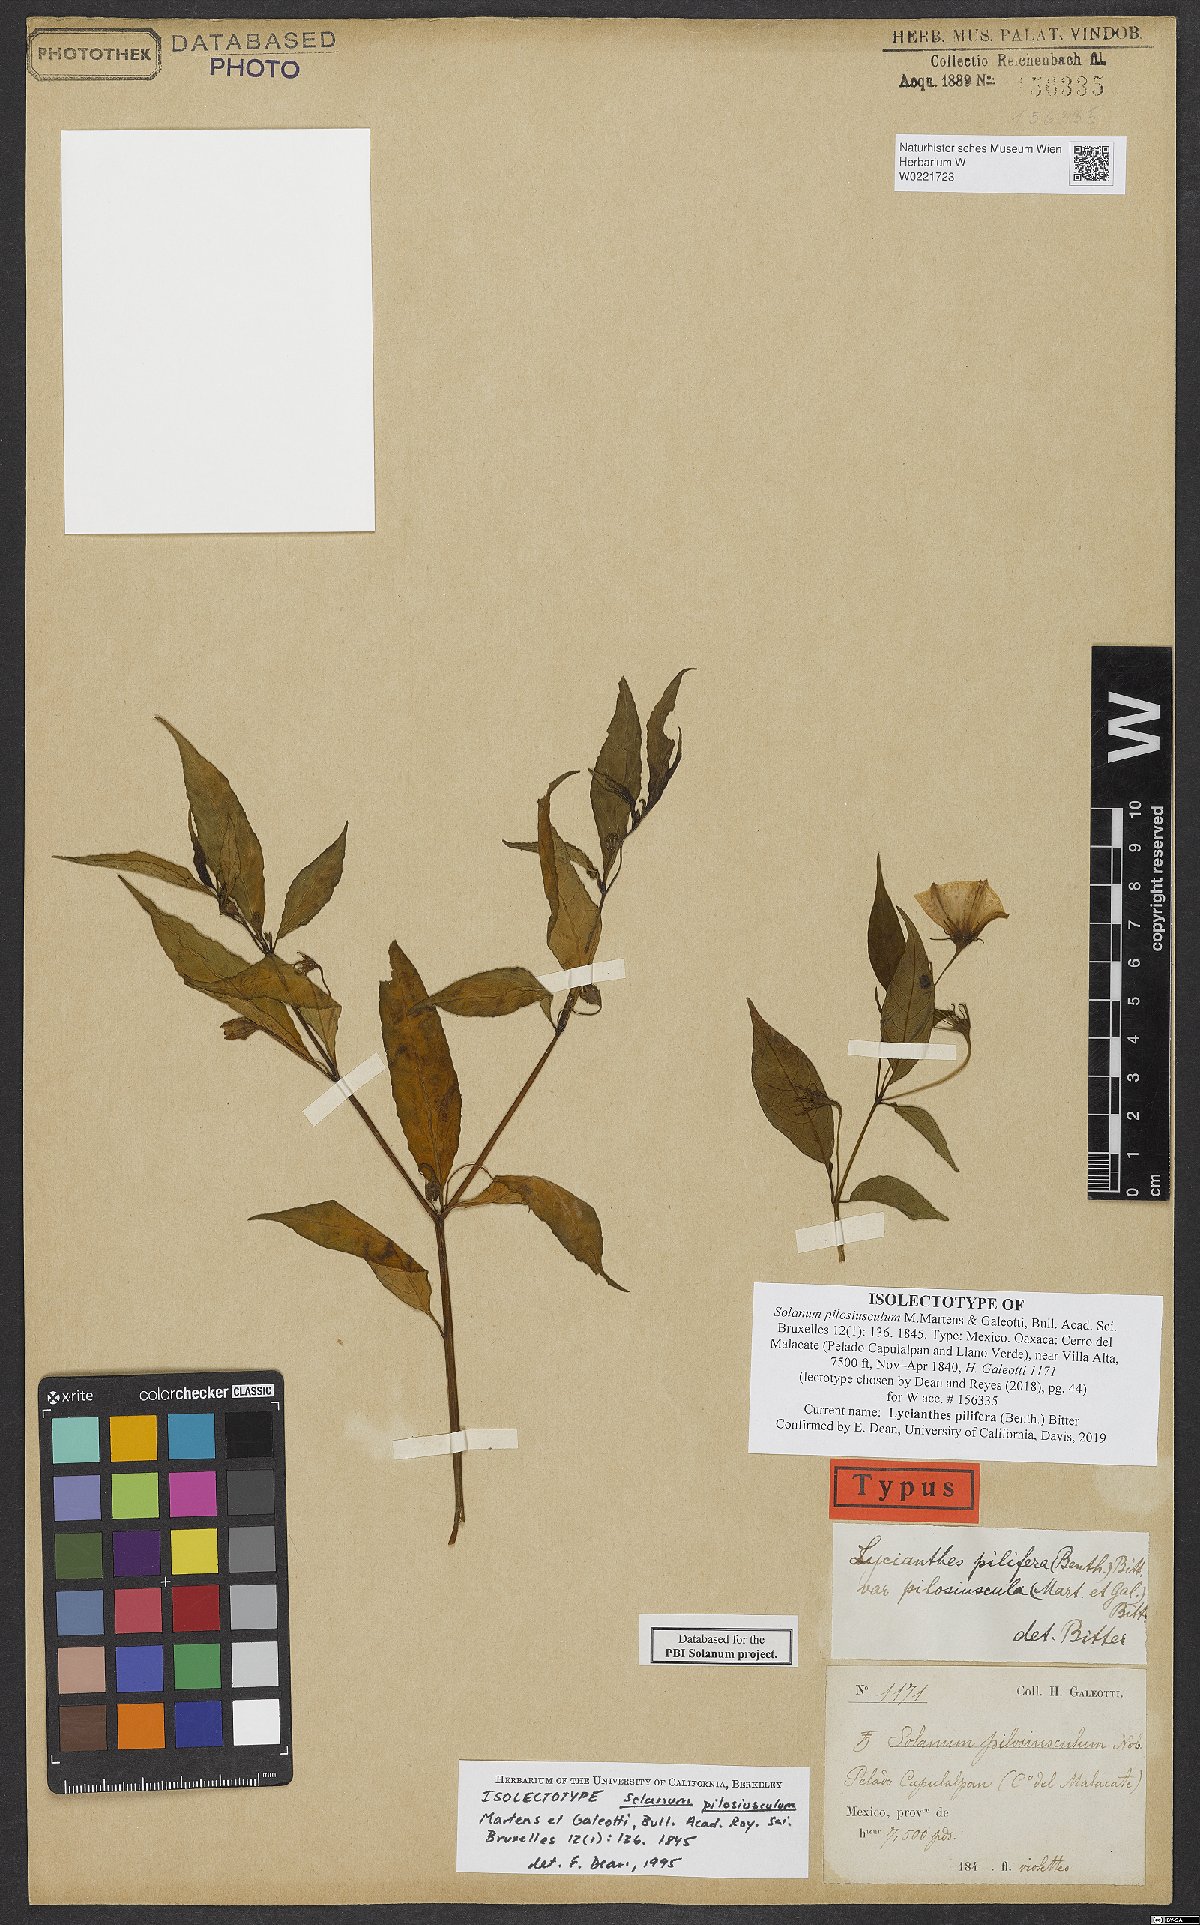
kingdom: Plantae
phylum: Tracheophyta
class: Magnoliopsida
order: Solanales
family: Solanaceae
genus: Lycianthes
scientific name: Lycianthes pilifera
